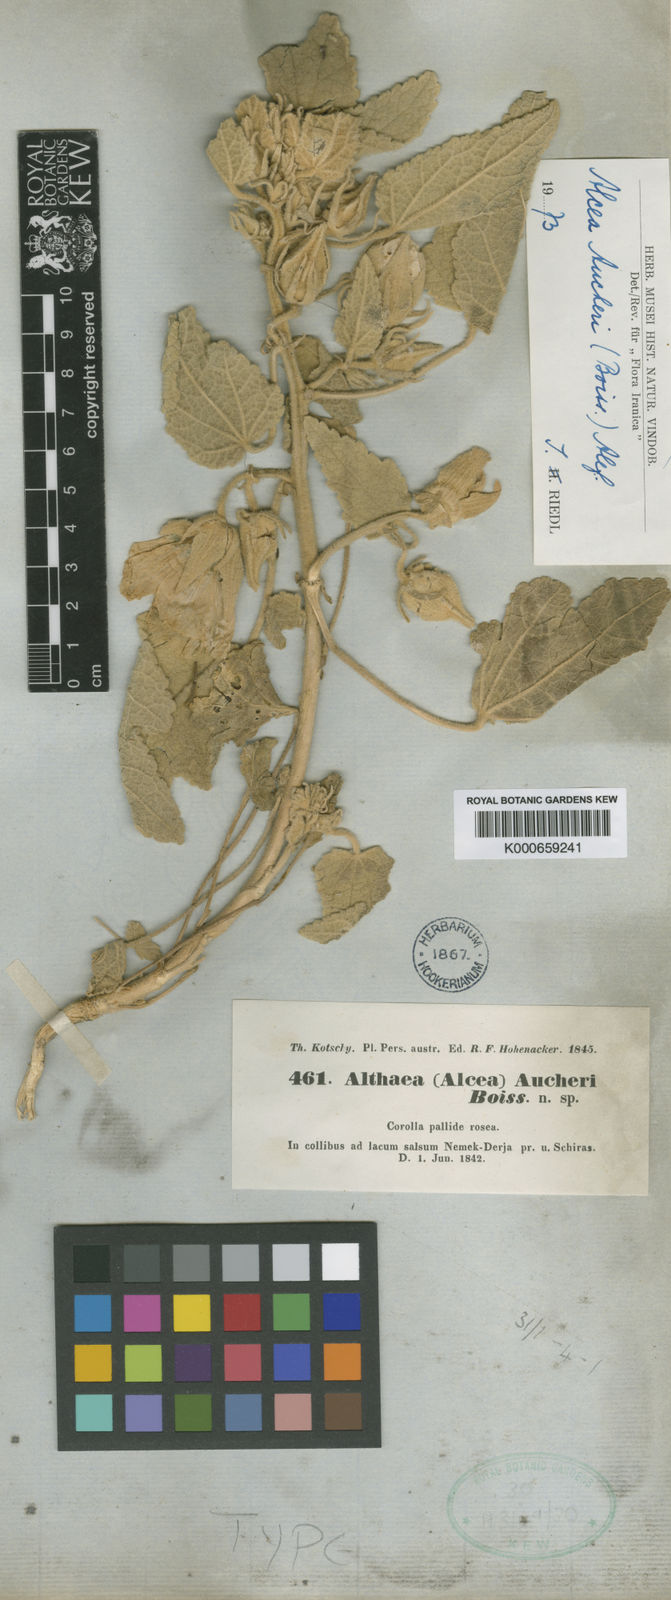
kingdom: Plantae
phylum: Tracheophyta
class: Magnoliopsida
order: Malvales
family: Malvaceae
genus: Alcea
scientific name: Alcea aucheri
